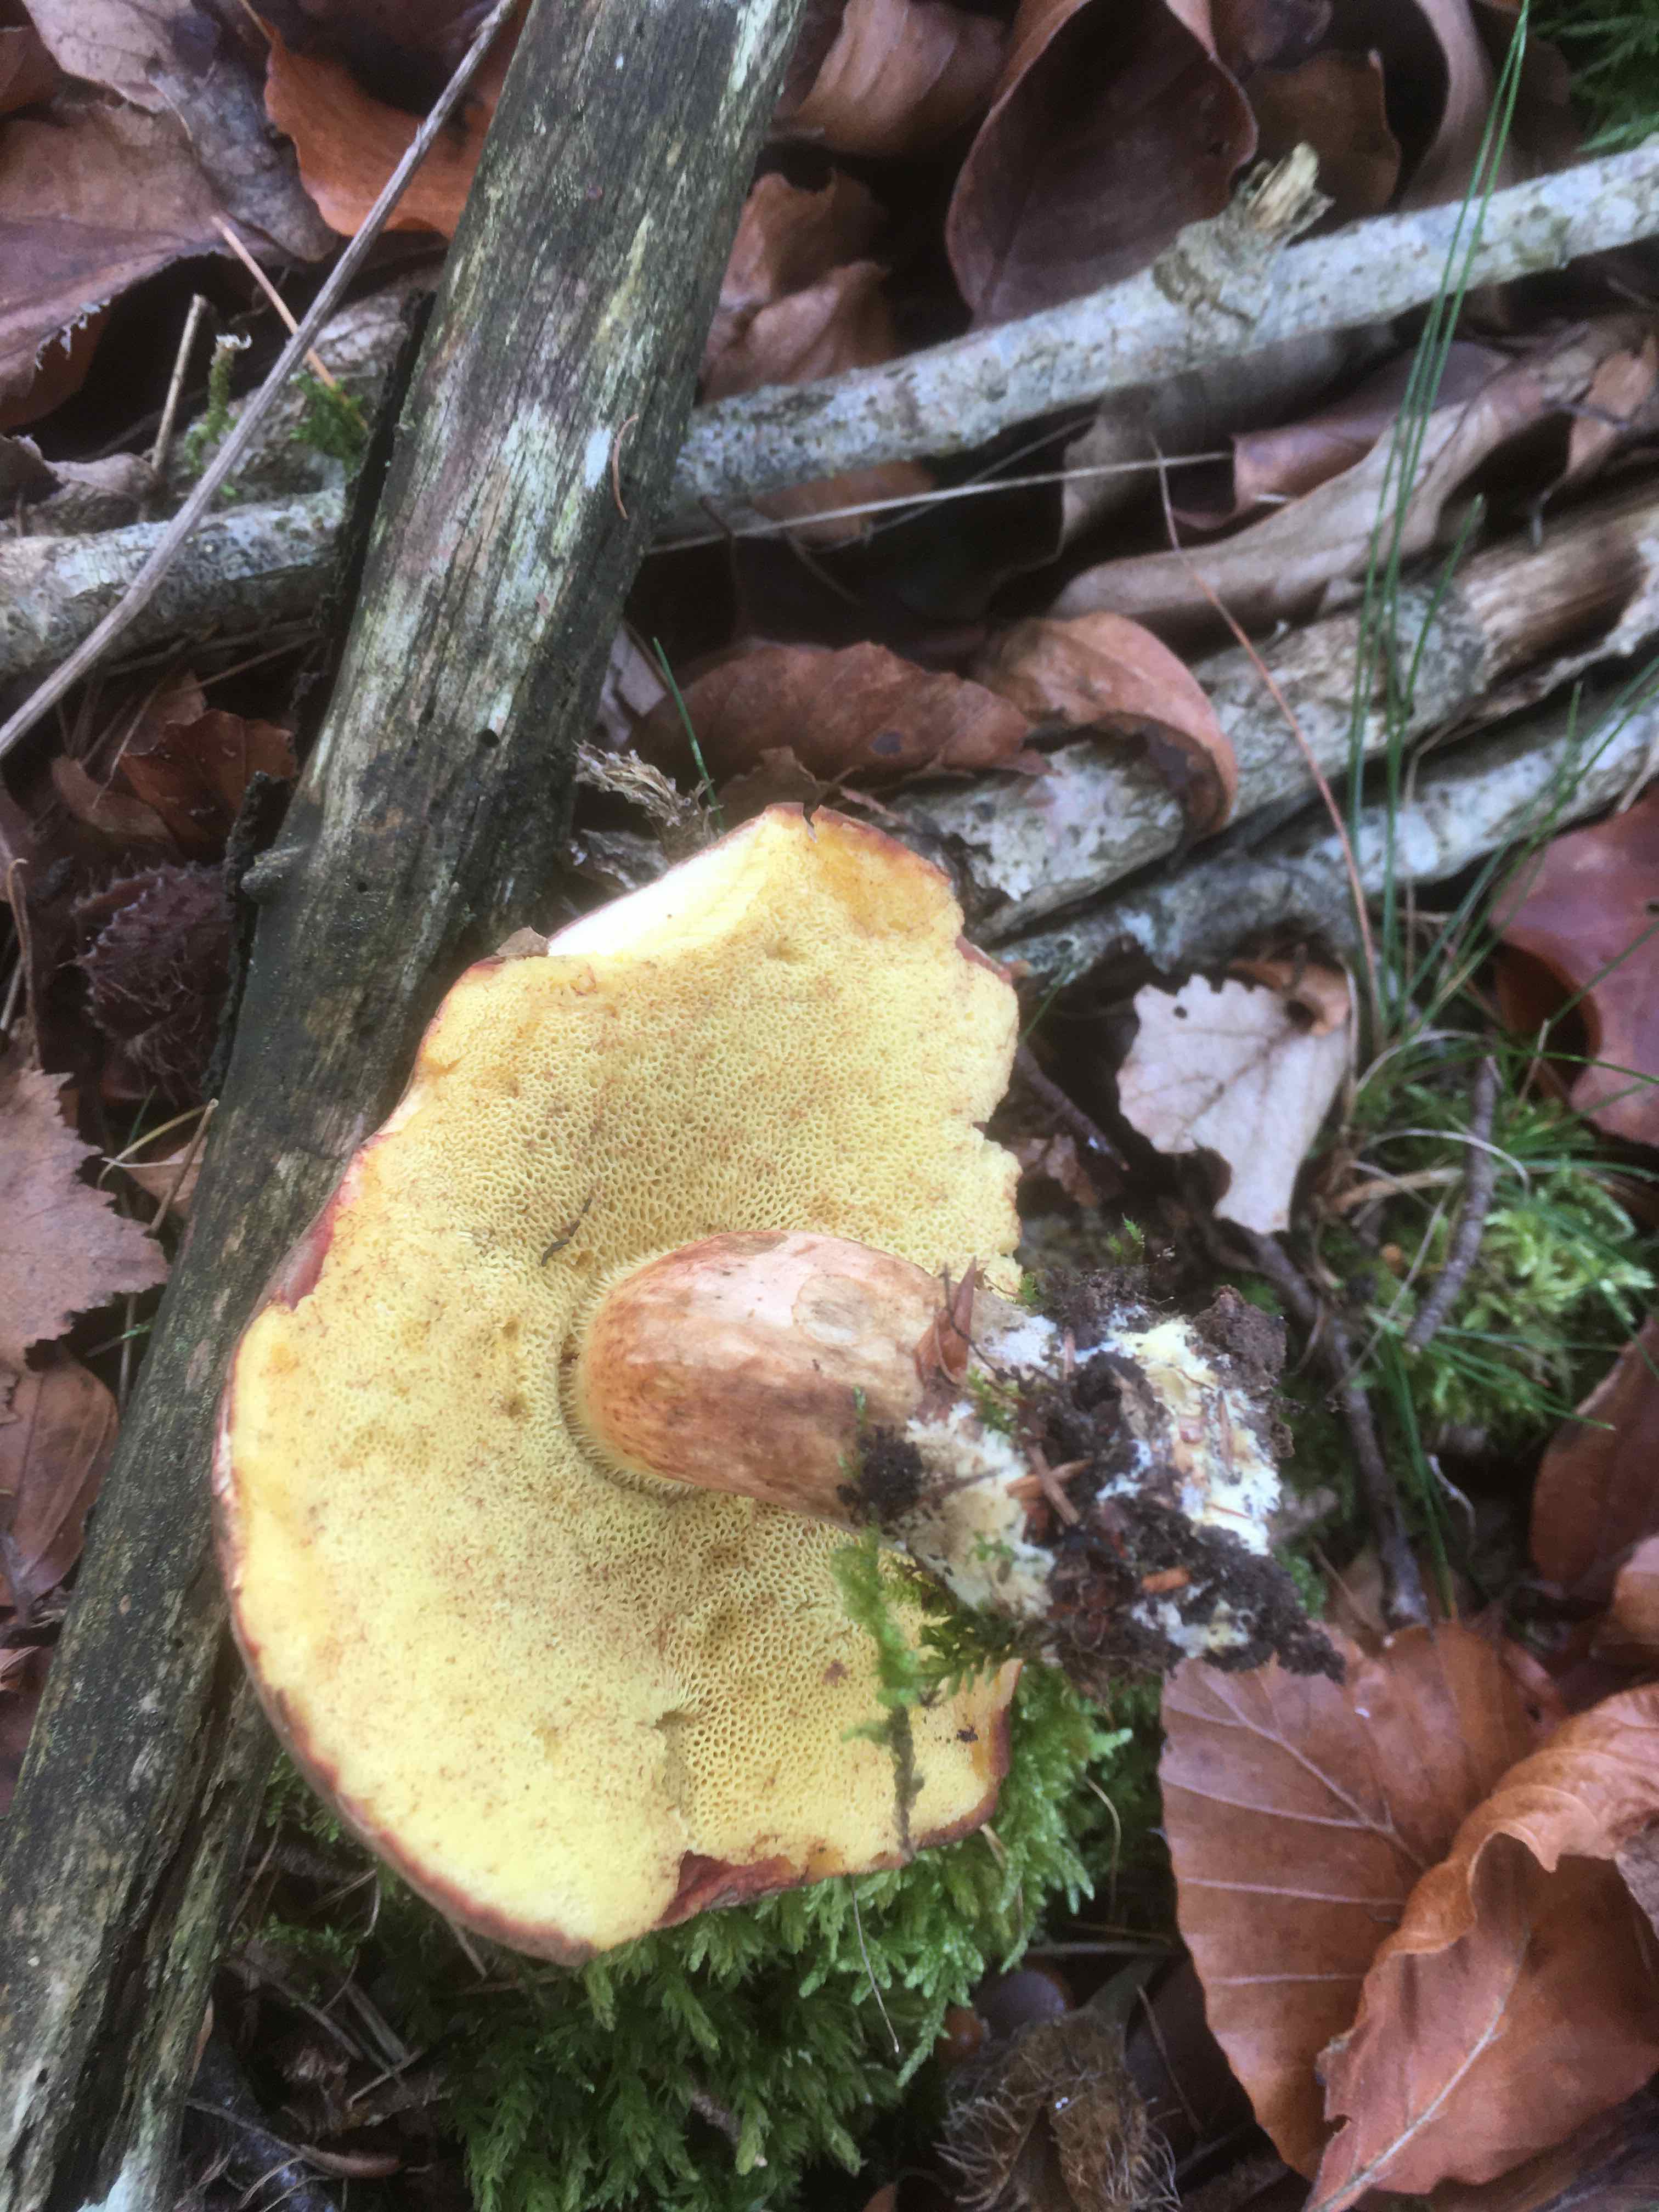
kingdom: Fungi
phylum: Basidiomycota
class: Agaricomycetes
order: Boletales
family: Boletaceae
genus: Xerocomellus
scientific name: Xerocomellus chrysenteron
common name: rødsprukken rørhat
